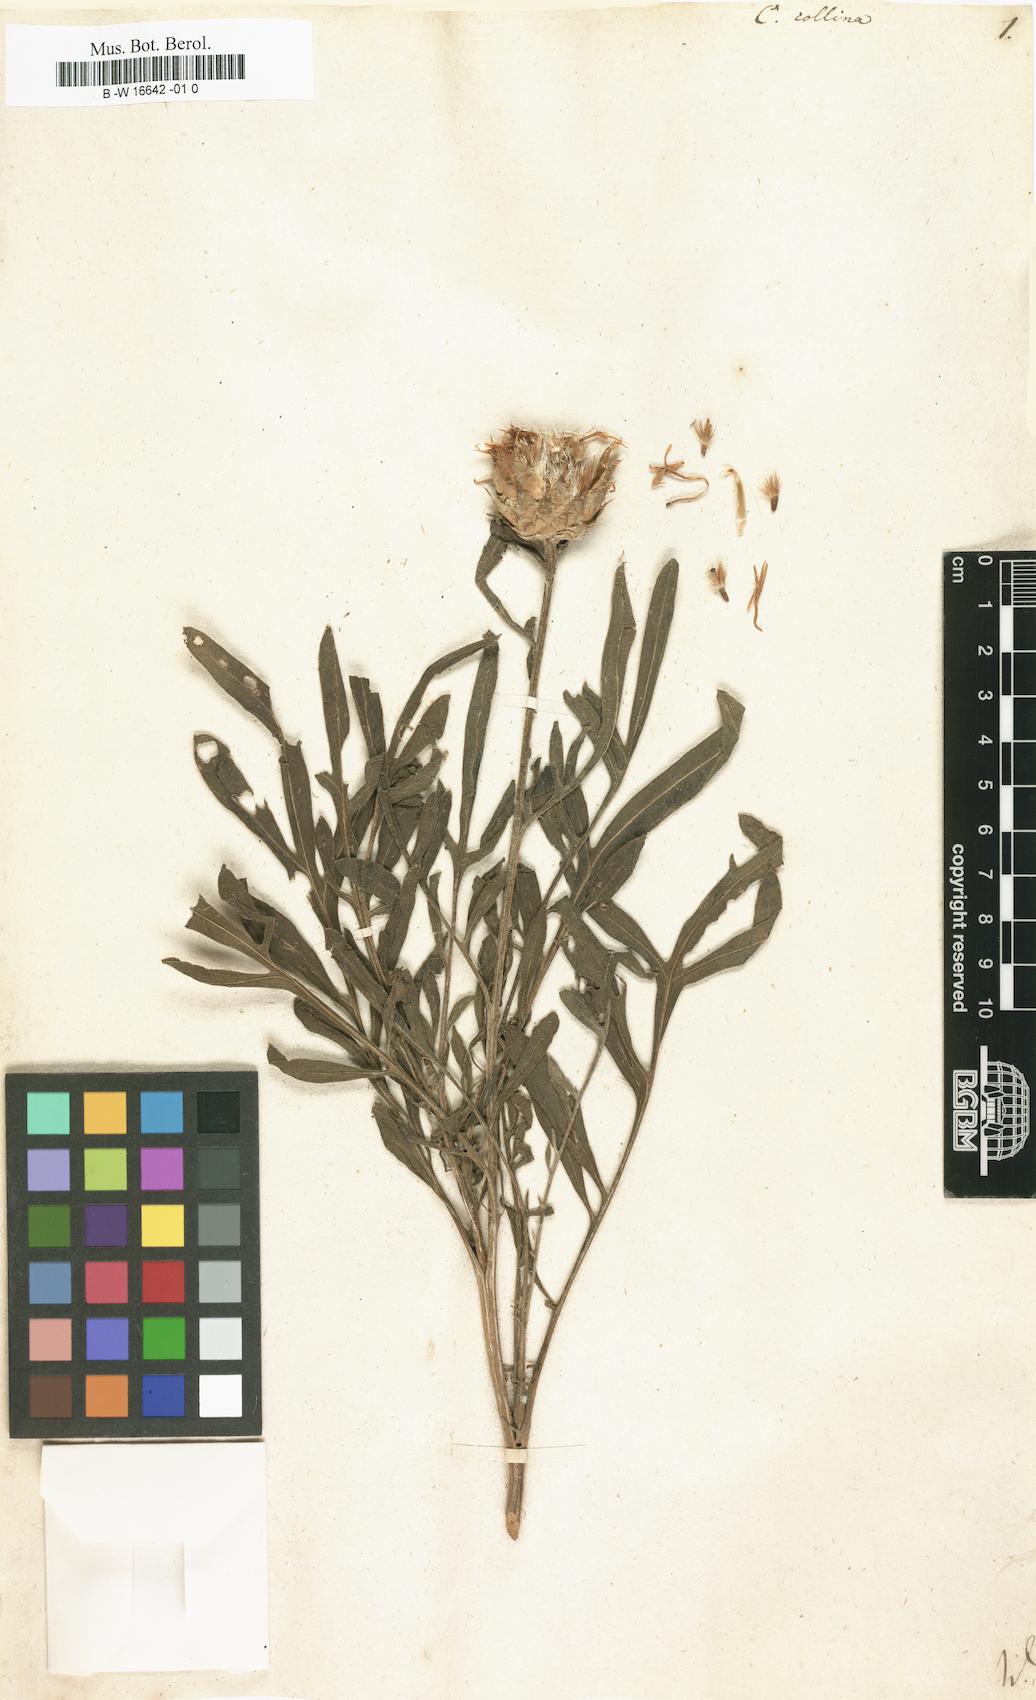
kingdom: Plantae
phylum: Tracheophyta
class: Magnoliopsida
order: Asterales
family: Asteraceae
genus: Centaurea
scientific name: Centaurea collina
